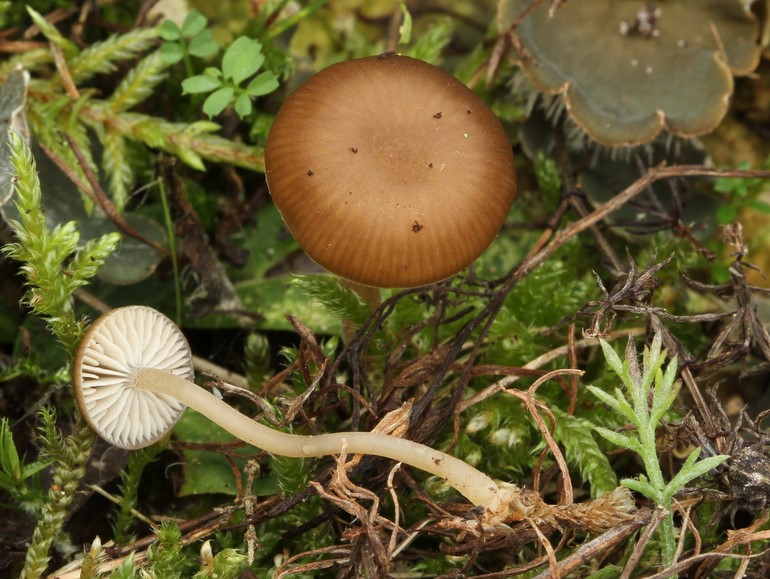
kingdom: Fungi
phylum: Basidiomycota
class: Agaricomycetes
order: Agaricales
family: Tricholomataceae
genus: Gamundia
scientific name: Gamundia xerophila
